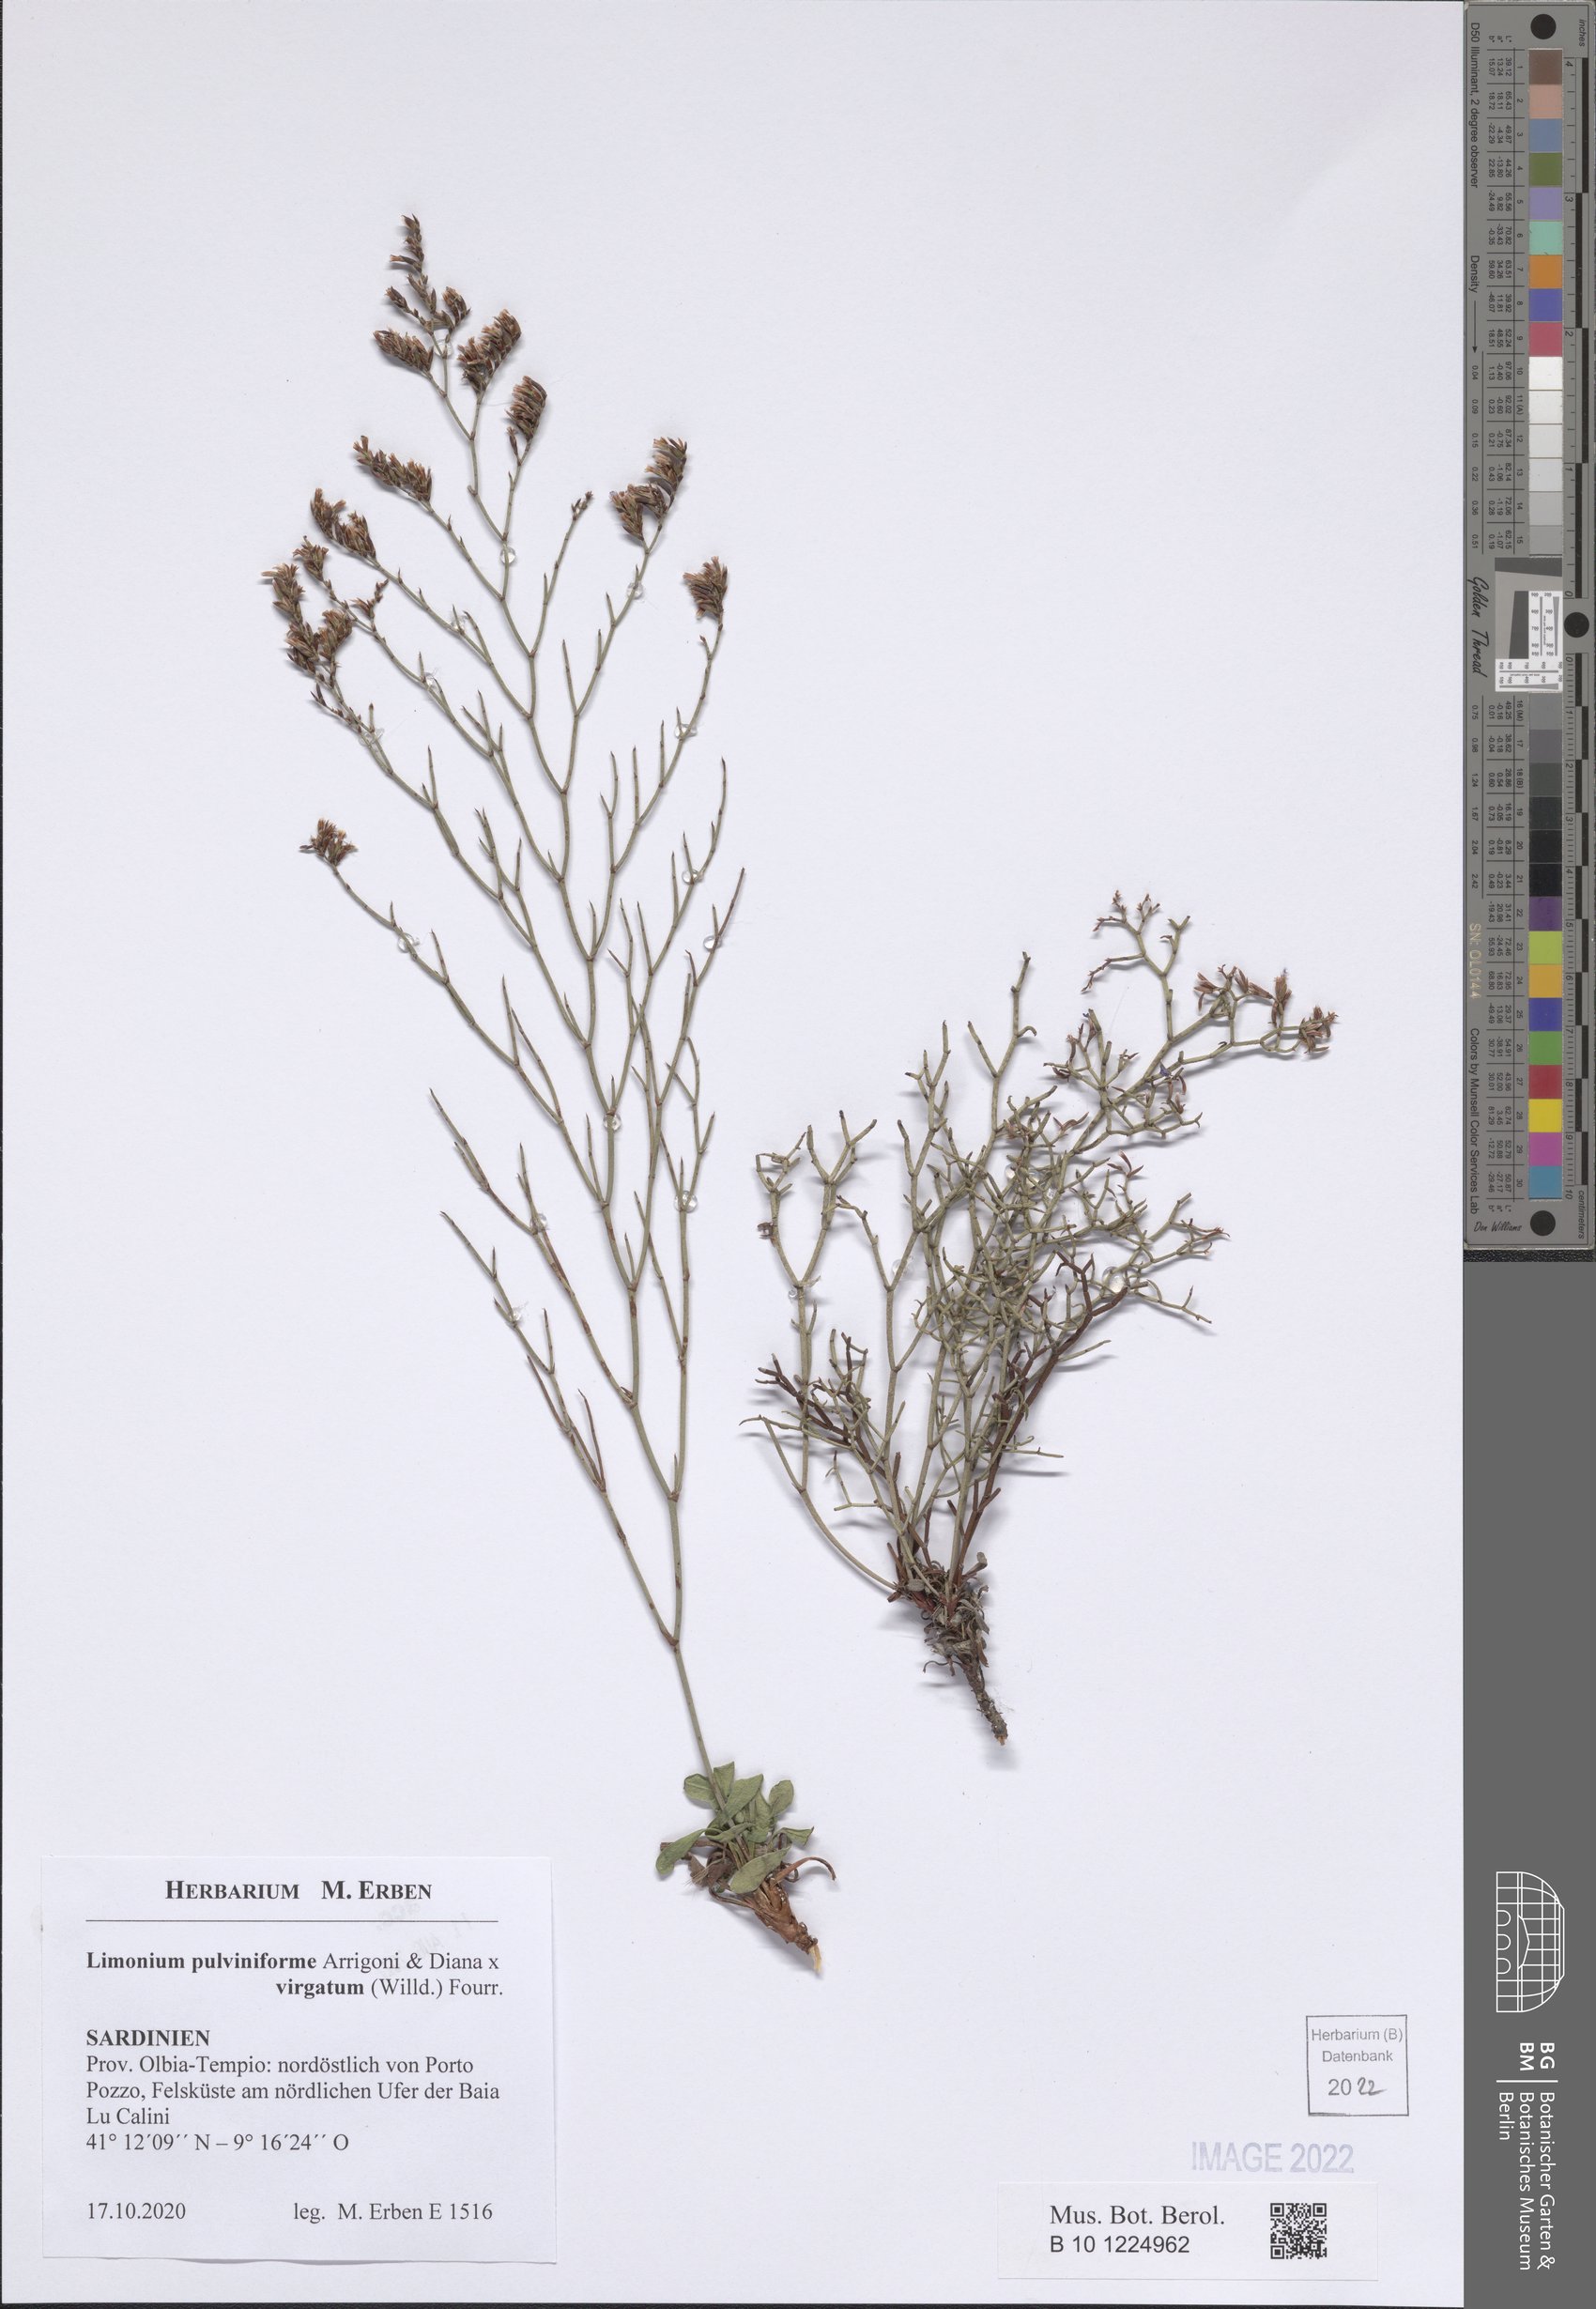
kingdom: Plantae
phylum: Tracheophyta
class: Magnoliopsida
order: Caryophyllales
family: Plumbaginaceae
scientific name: Plumbaginaceae
